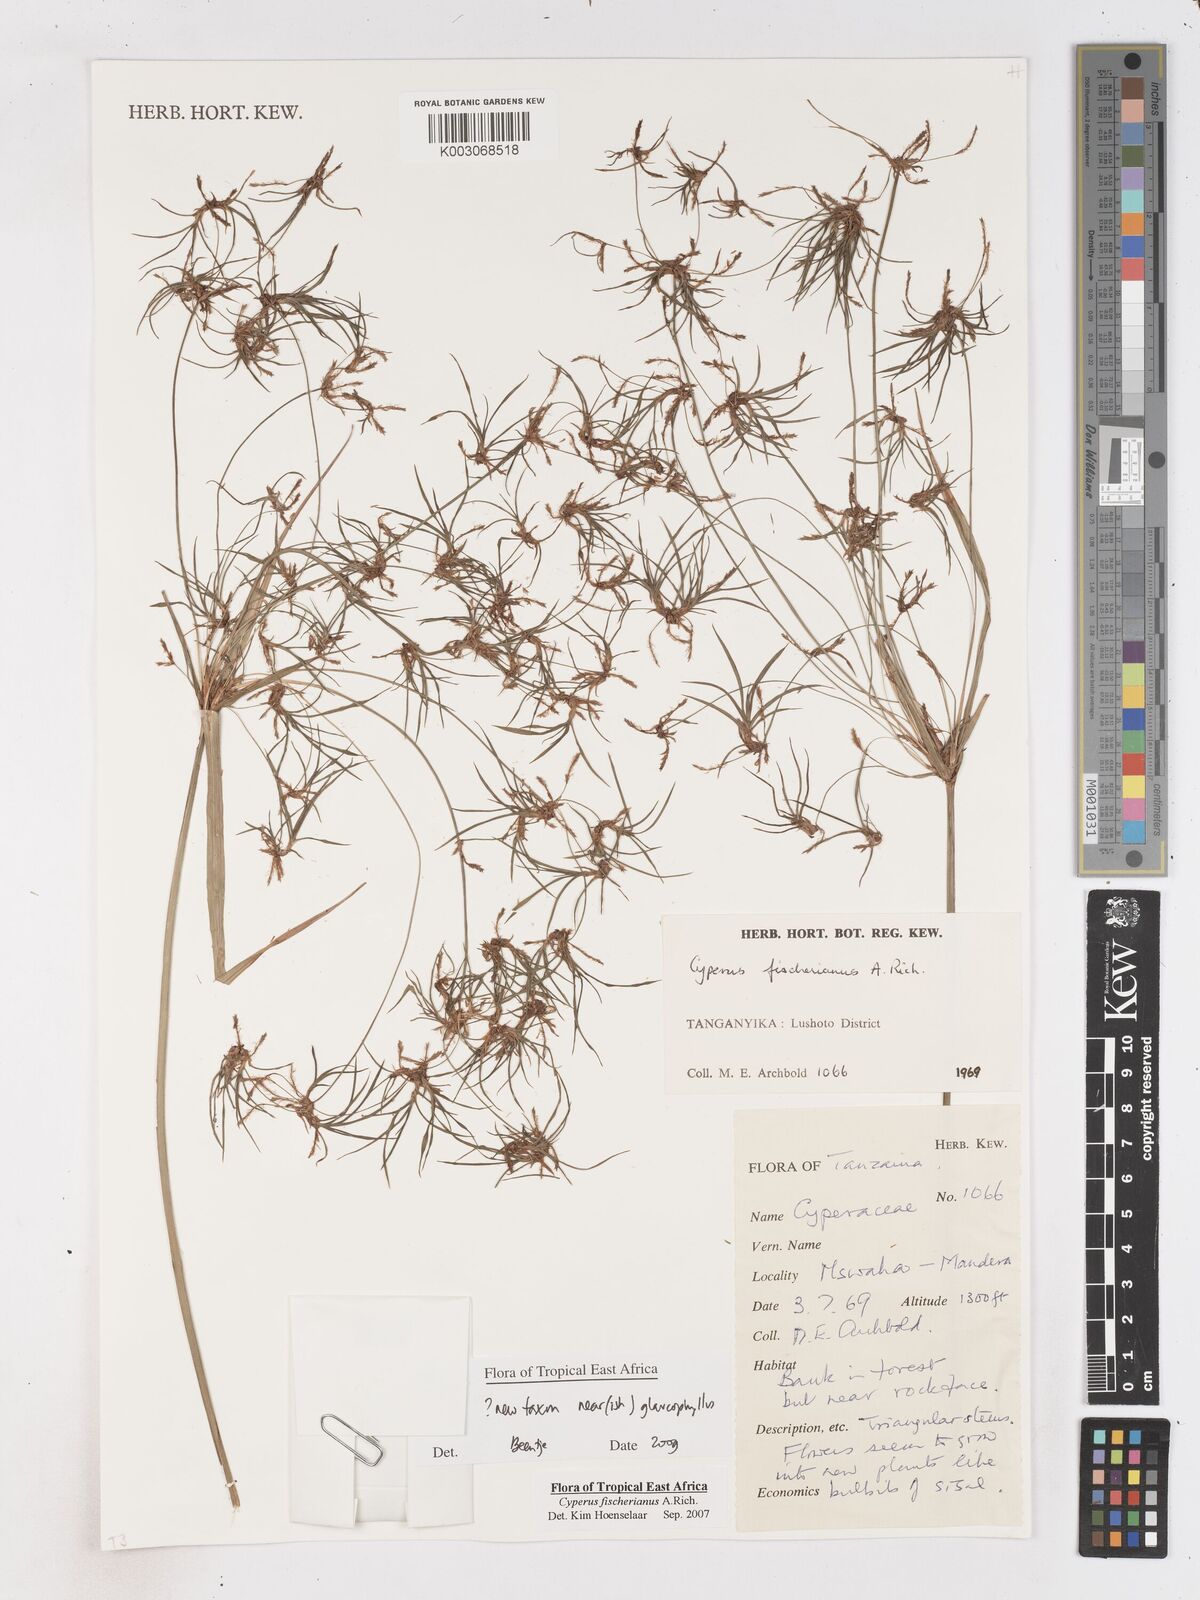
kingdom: Plantae
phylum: Tracheophyta
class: Liliopsida
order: Poales
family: Cyperaceae
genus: Cyperus
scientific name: Cyperus glaucophyllus
